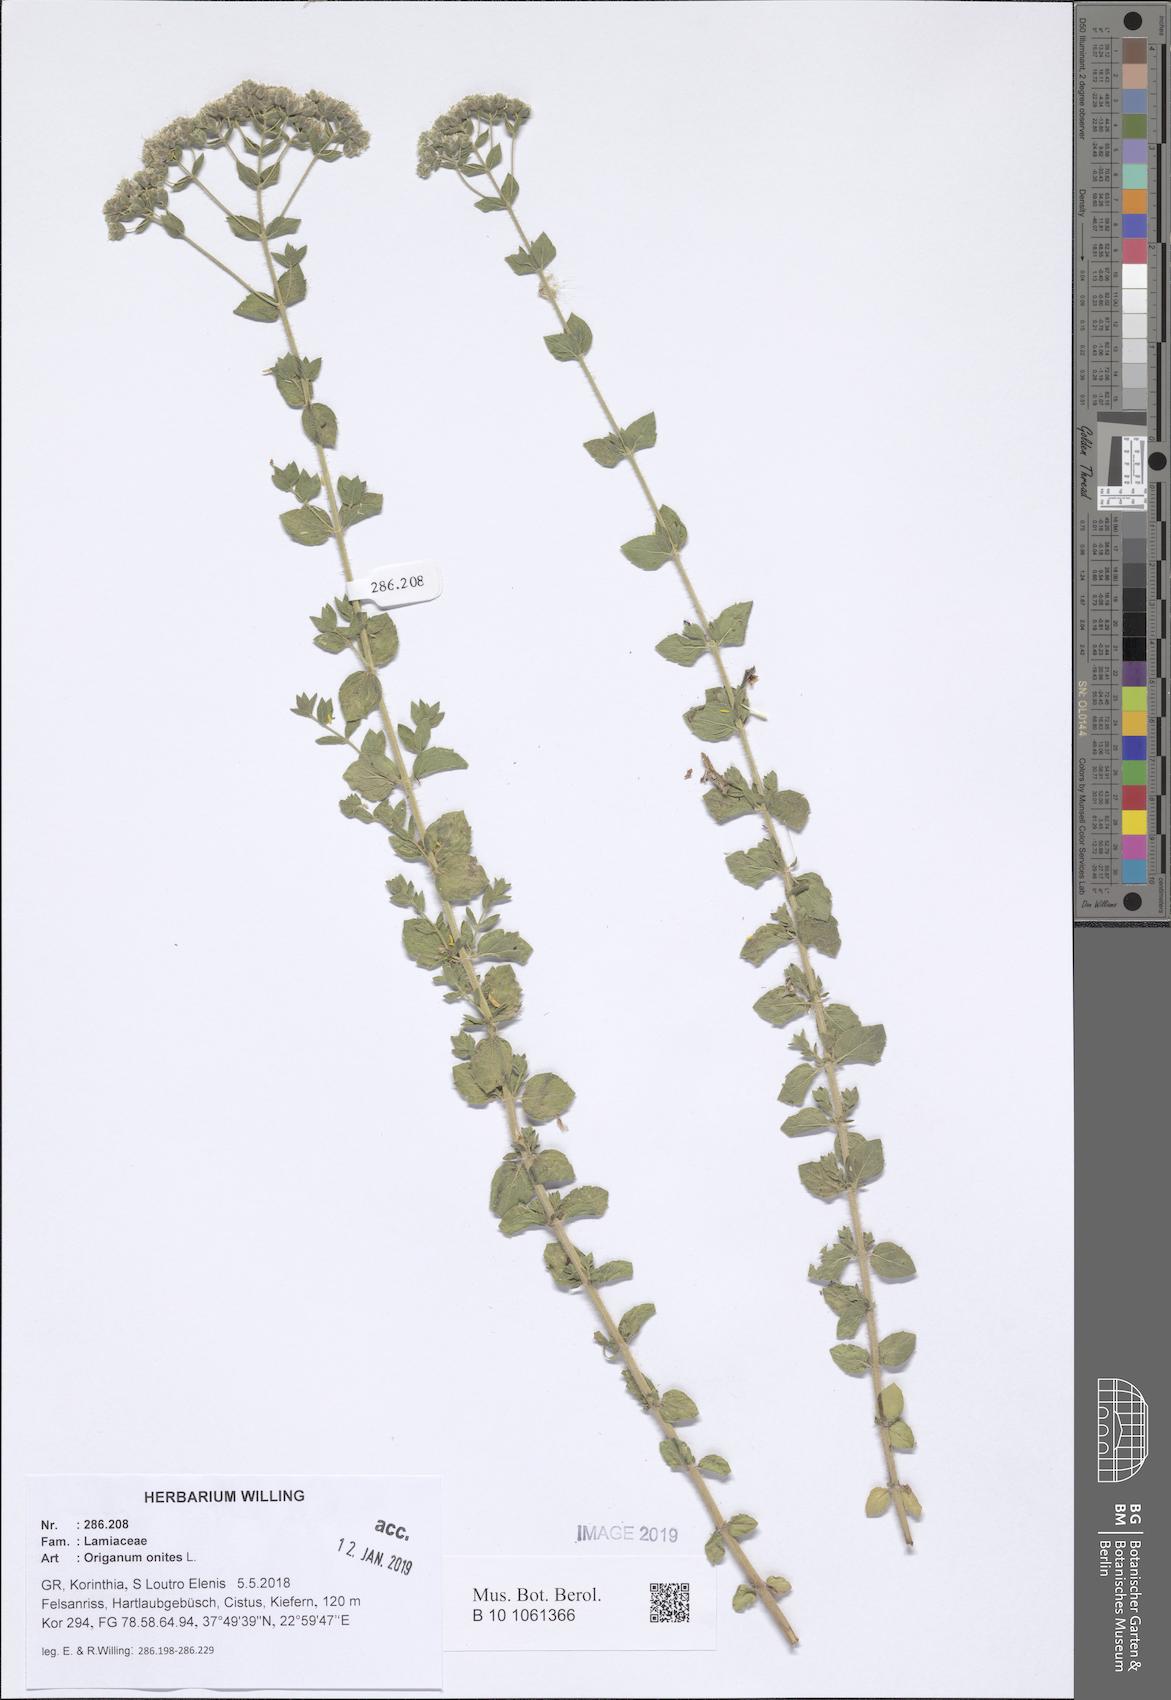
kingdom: Plantae
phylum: Tracheophyta
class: Magnoliopsida
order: Lamiales
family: Lamiaceae
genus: Origanum
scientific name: Origanum onites
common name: Turkish oregano
